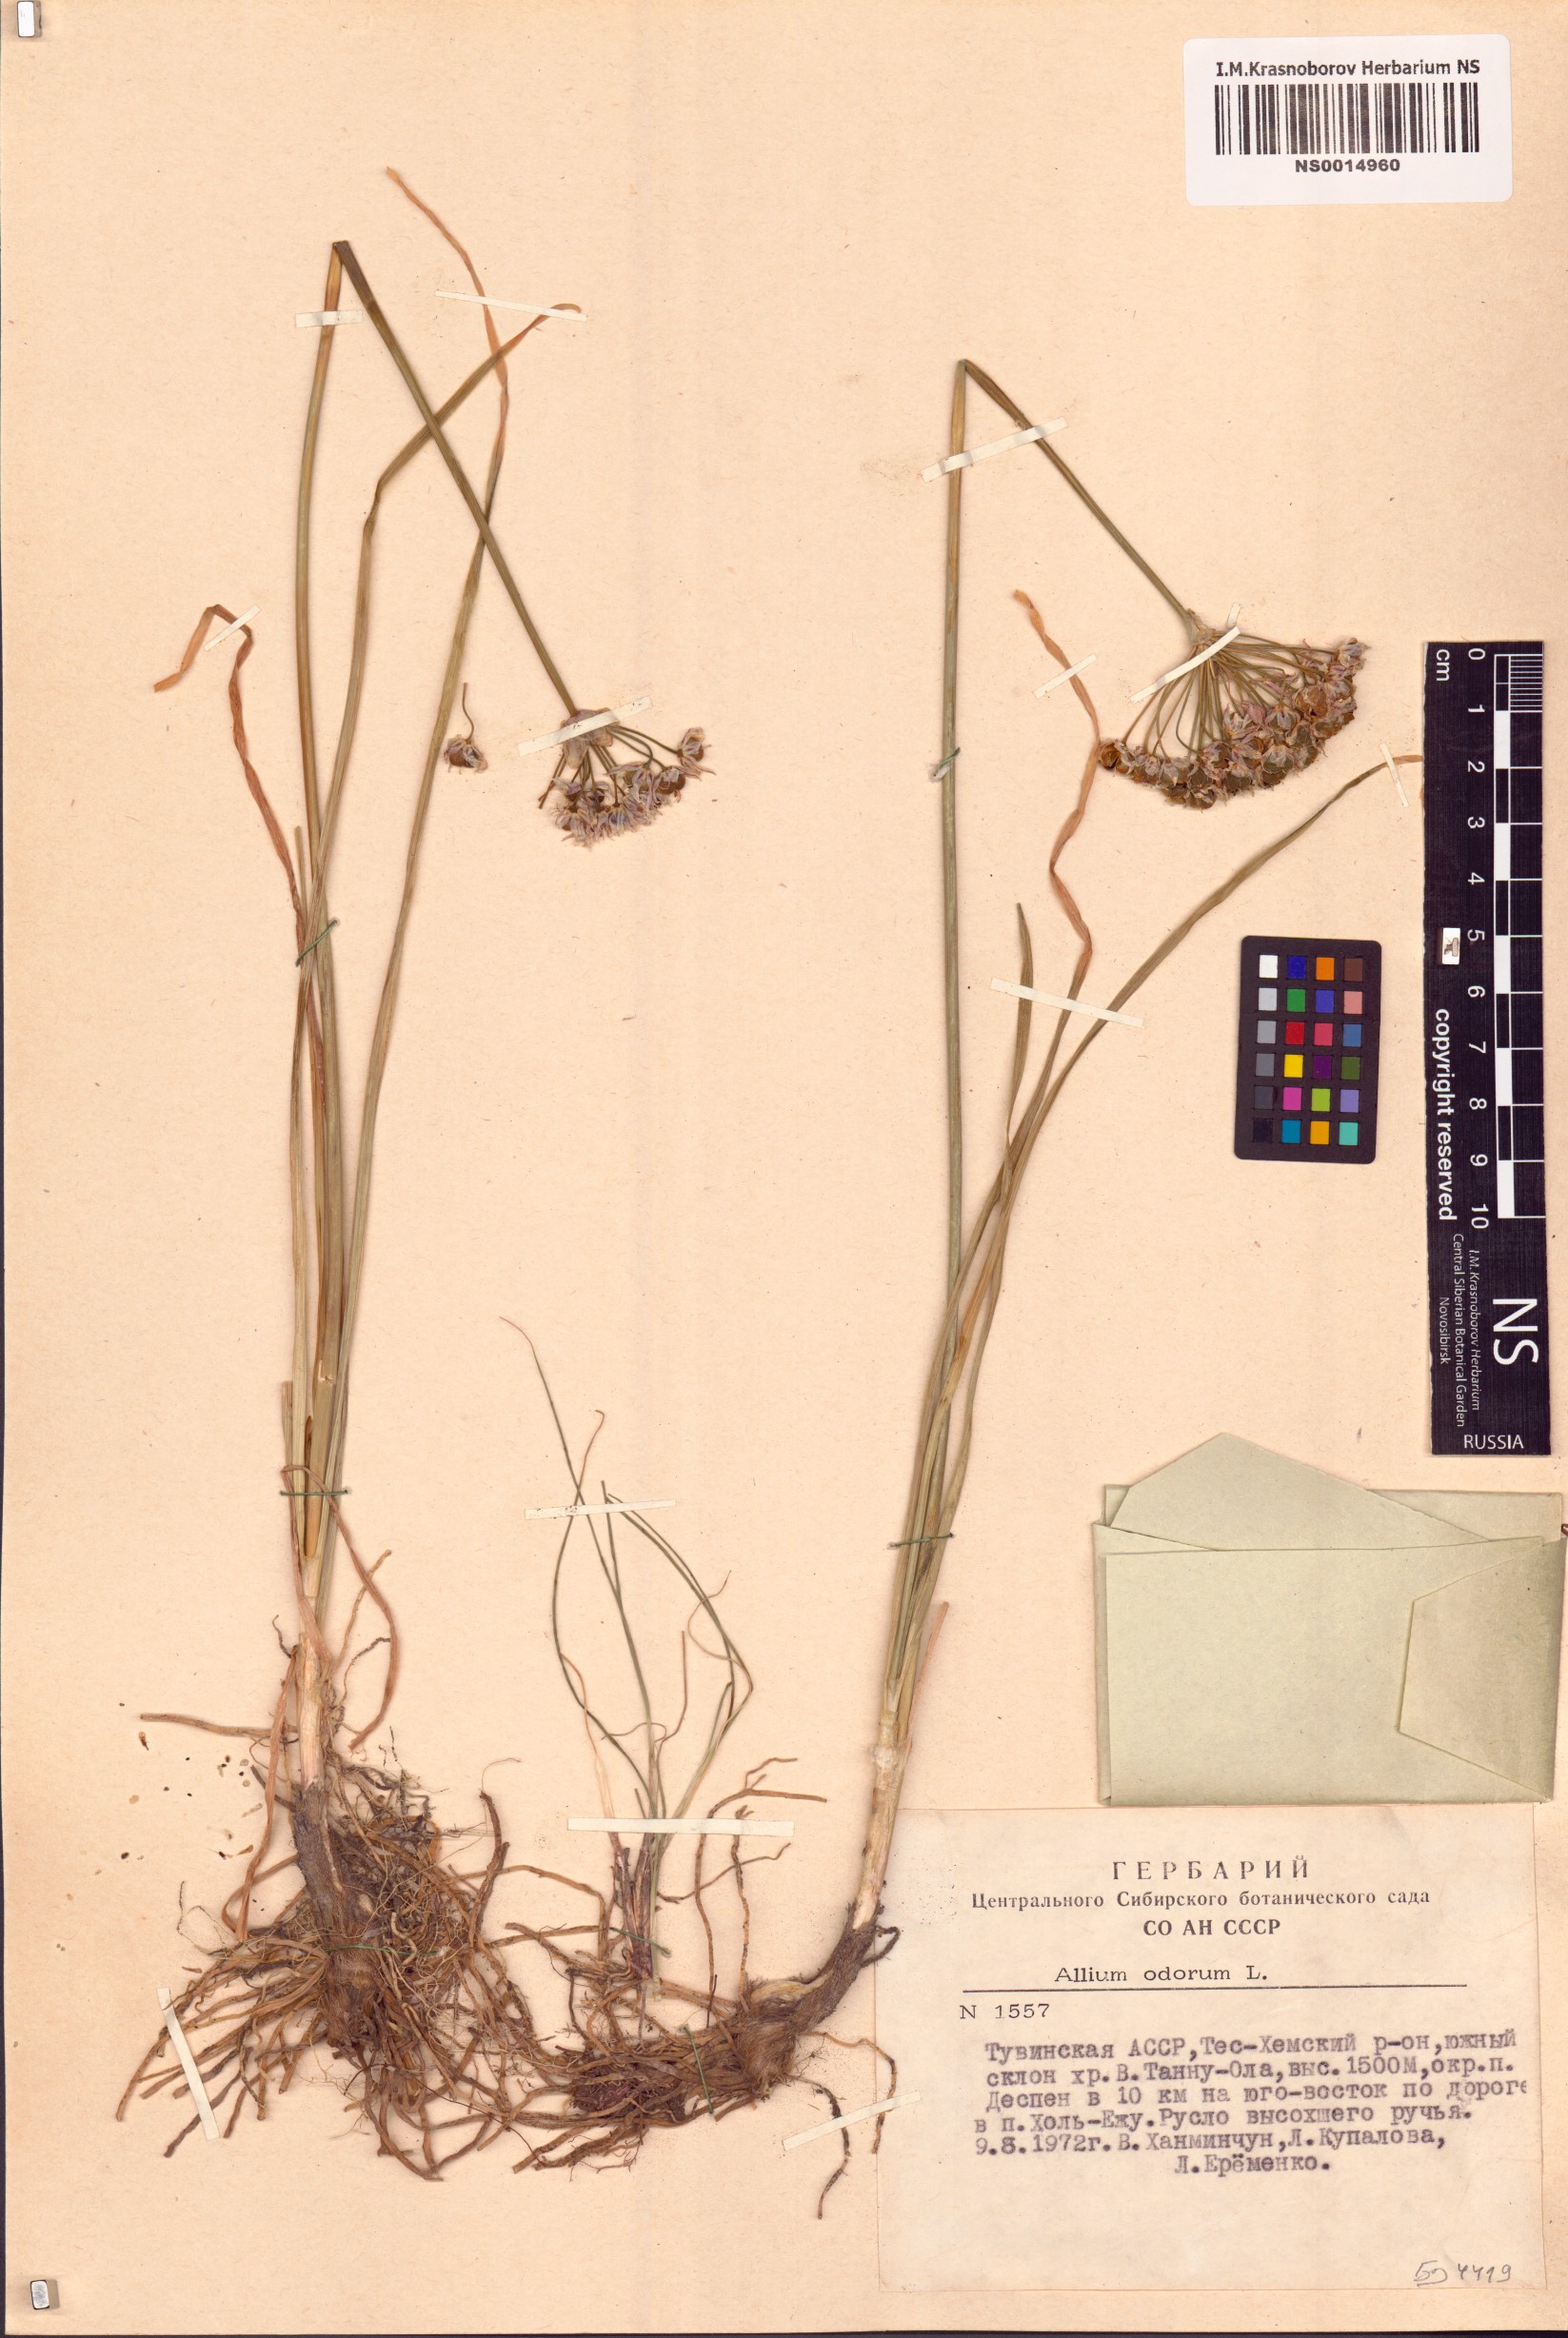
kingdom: Plantae
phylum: Tracheophyta
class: Liliopsida
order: Asparagales
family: Amaryllidaceae
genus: Allium
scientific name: Allium ramosum
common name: Fragrant garlic
